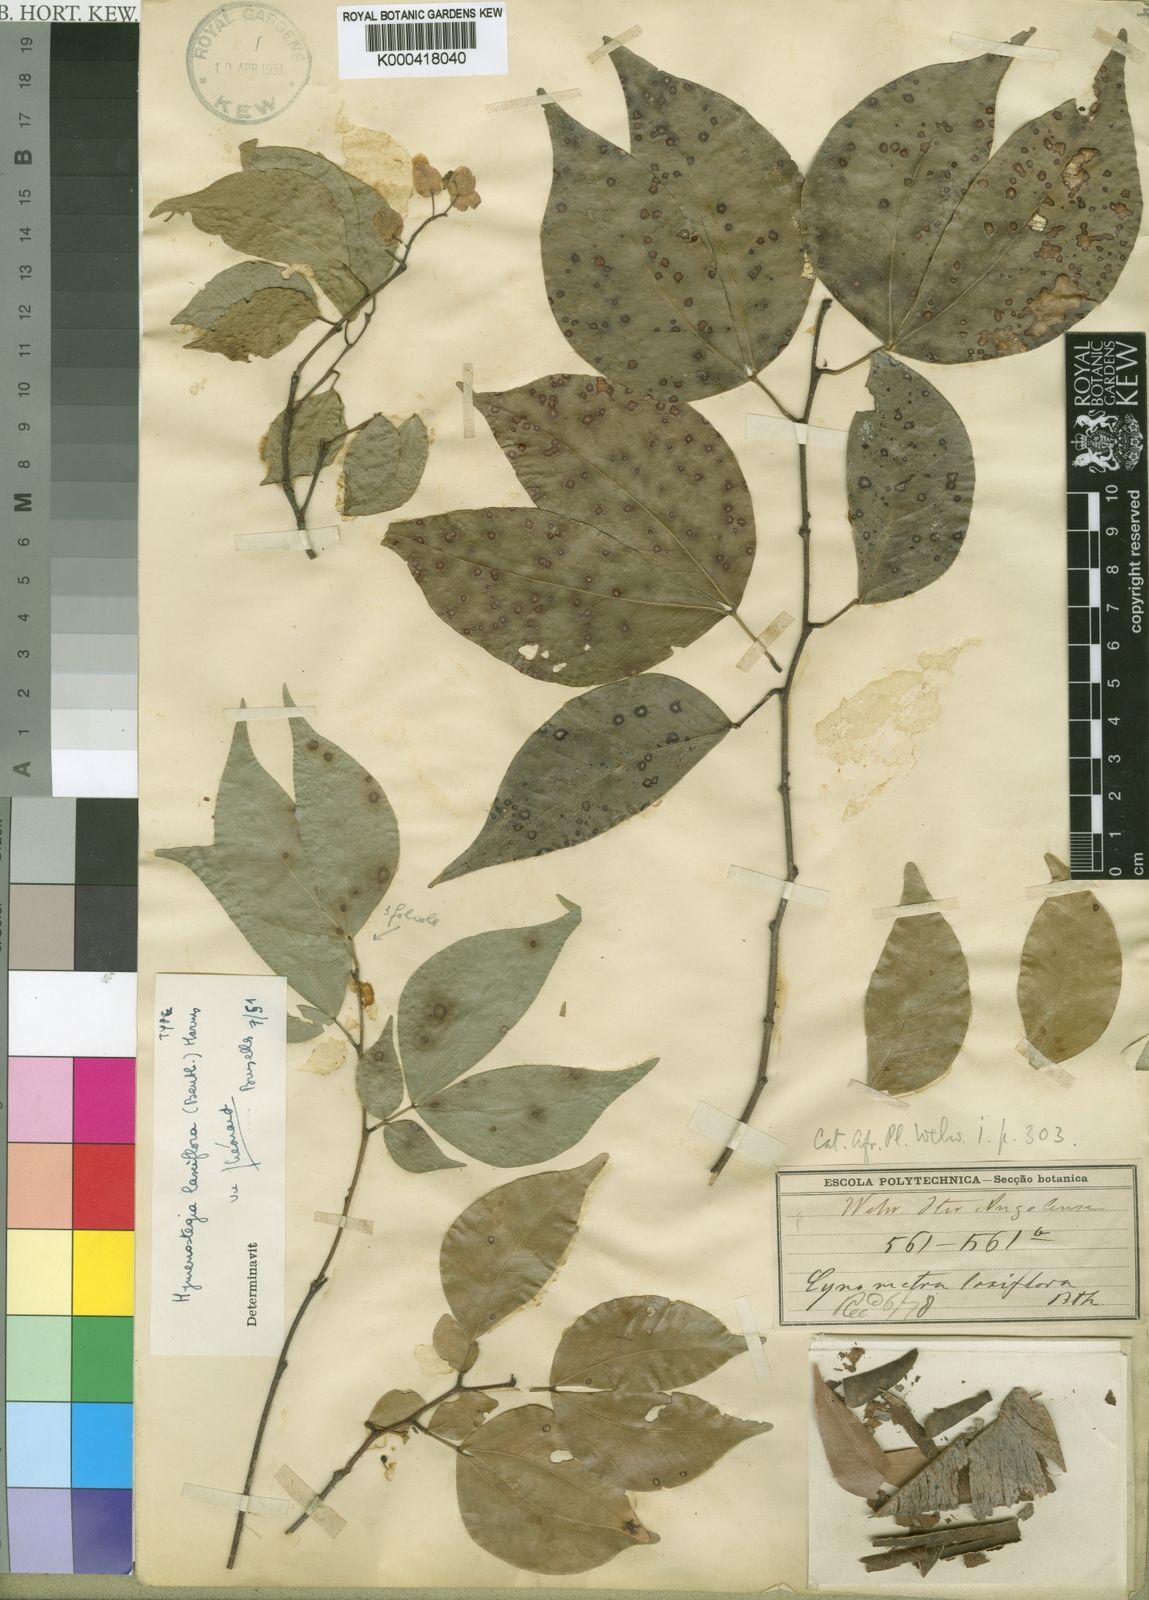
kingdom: Plantae
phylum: Tracheophyta
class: Magnoliopsida
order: Fabales
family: Fabaceae
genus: Annea
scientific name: Annea laxiflora
